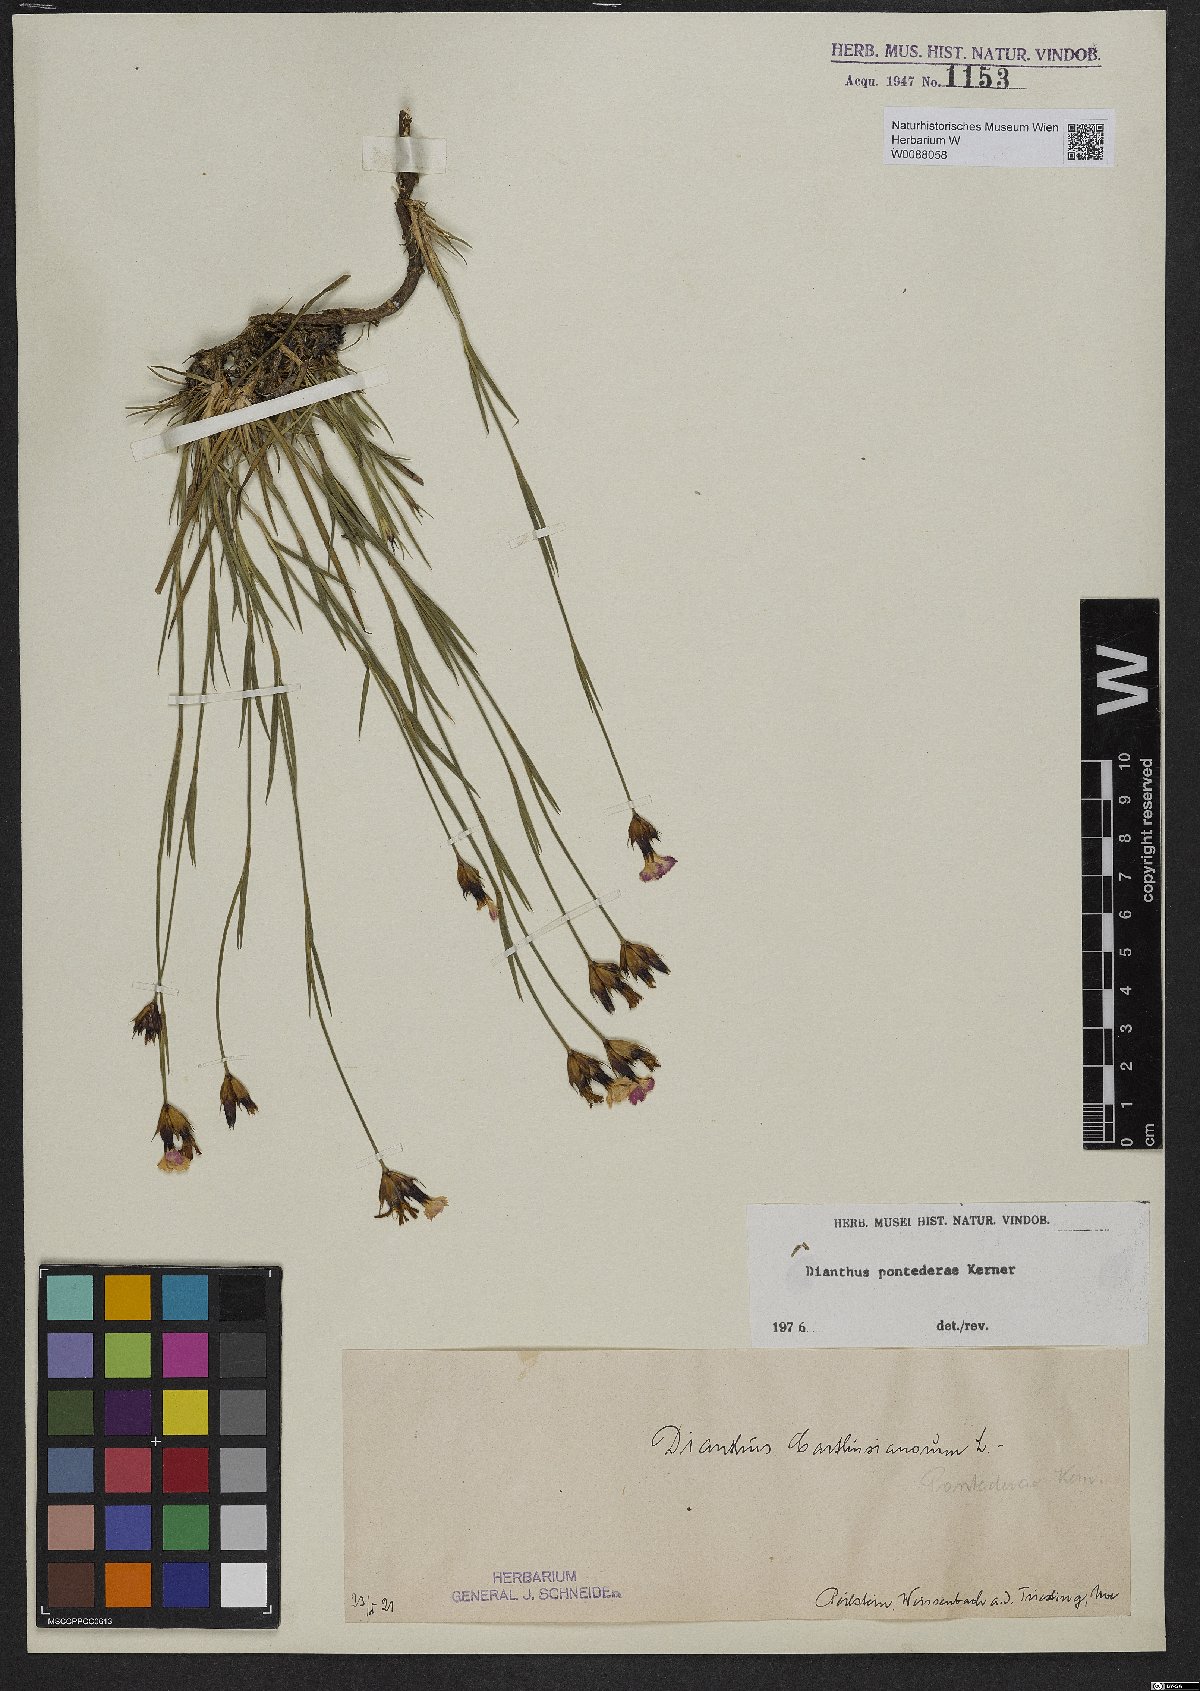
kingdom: Plantae
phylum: Tracheophyta
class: Magnoliopsida
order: Caryophyllales
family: Caryophyllaceae
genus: Dianthus
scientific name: Dianthus pontederae
